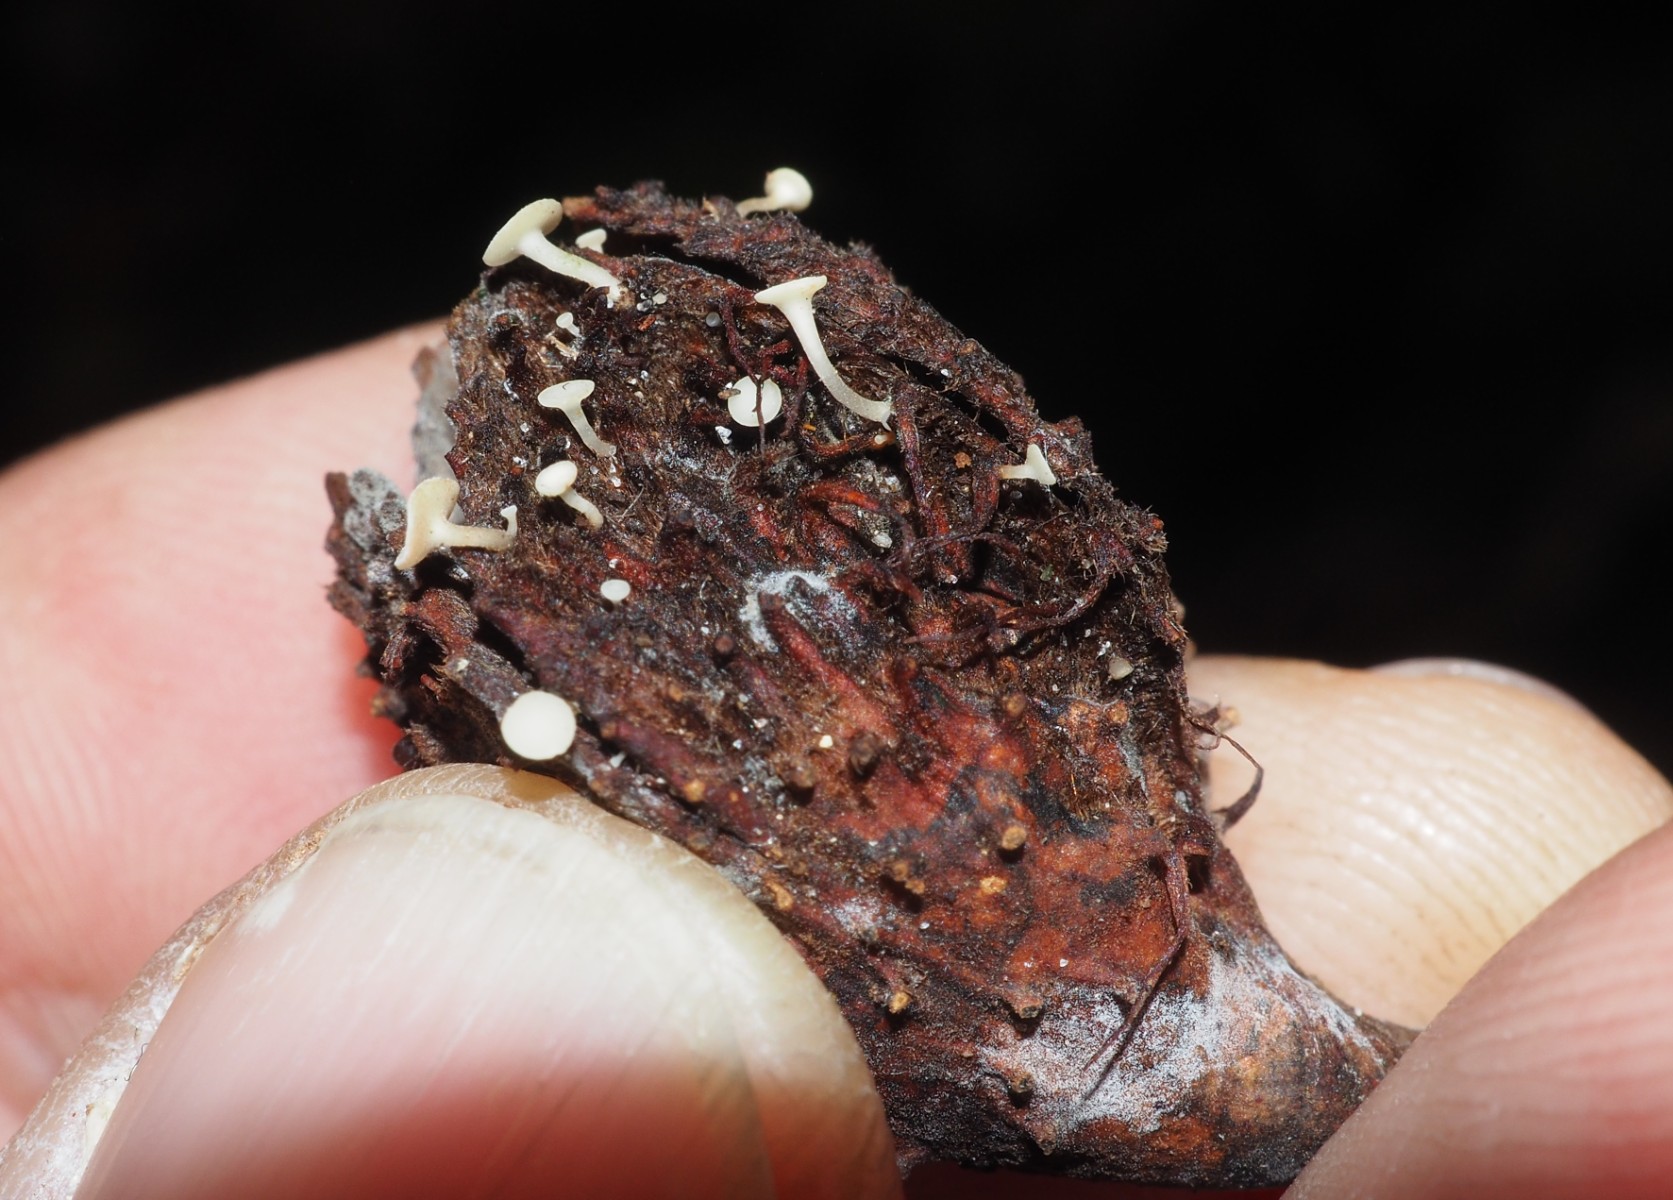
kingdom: Fungi
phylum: Ascomycota
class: Sordariomycetes
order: Xylariales
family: Xylariaceae
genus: Xylaria
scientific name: Xylaria hypoxylon
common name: grenet stødsvamp
